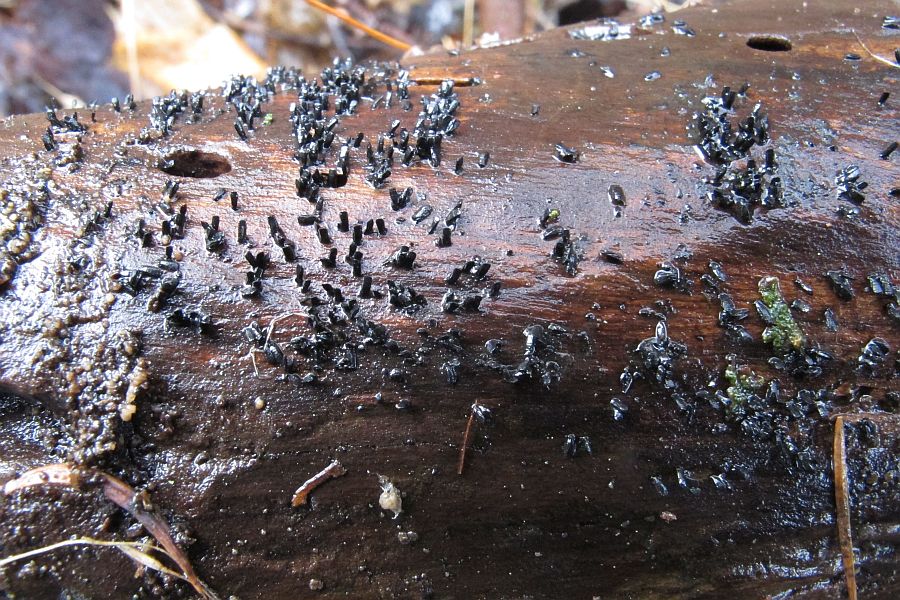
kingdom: Fungi
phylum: Ascomycota
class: Eurotiomycetes
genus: Glyphium
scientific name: Glyphium elatum
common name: kuløkse
